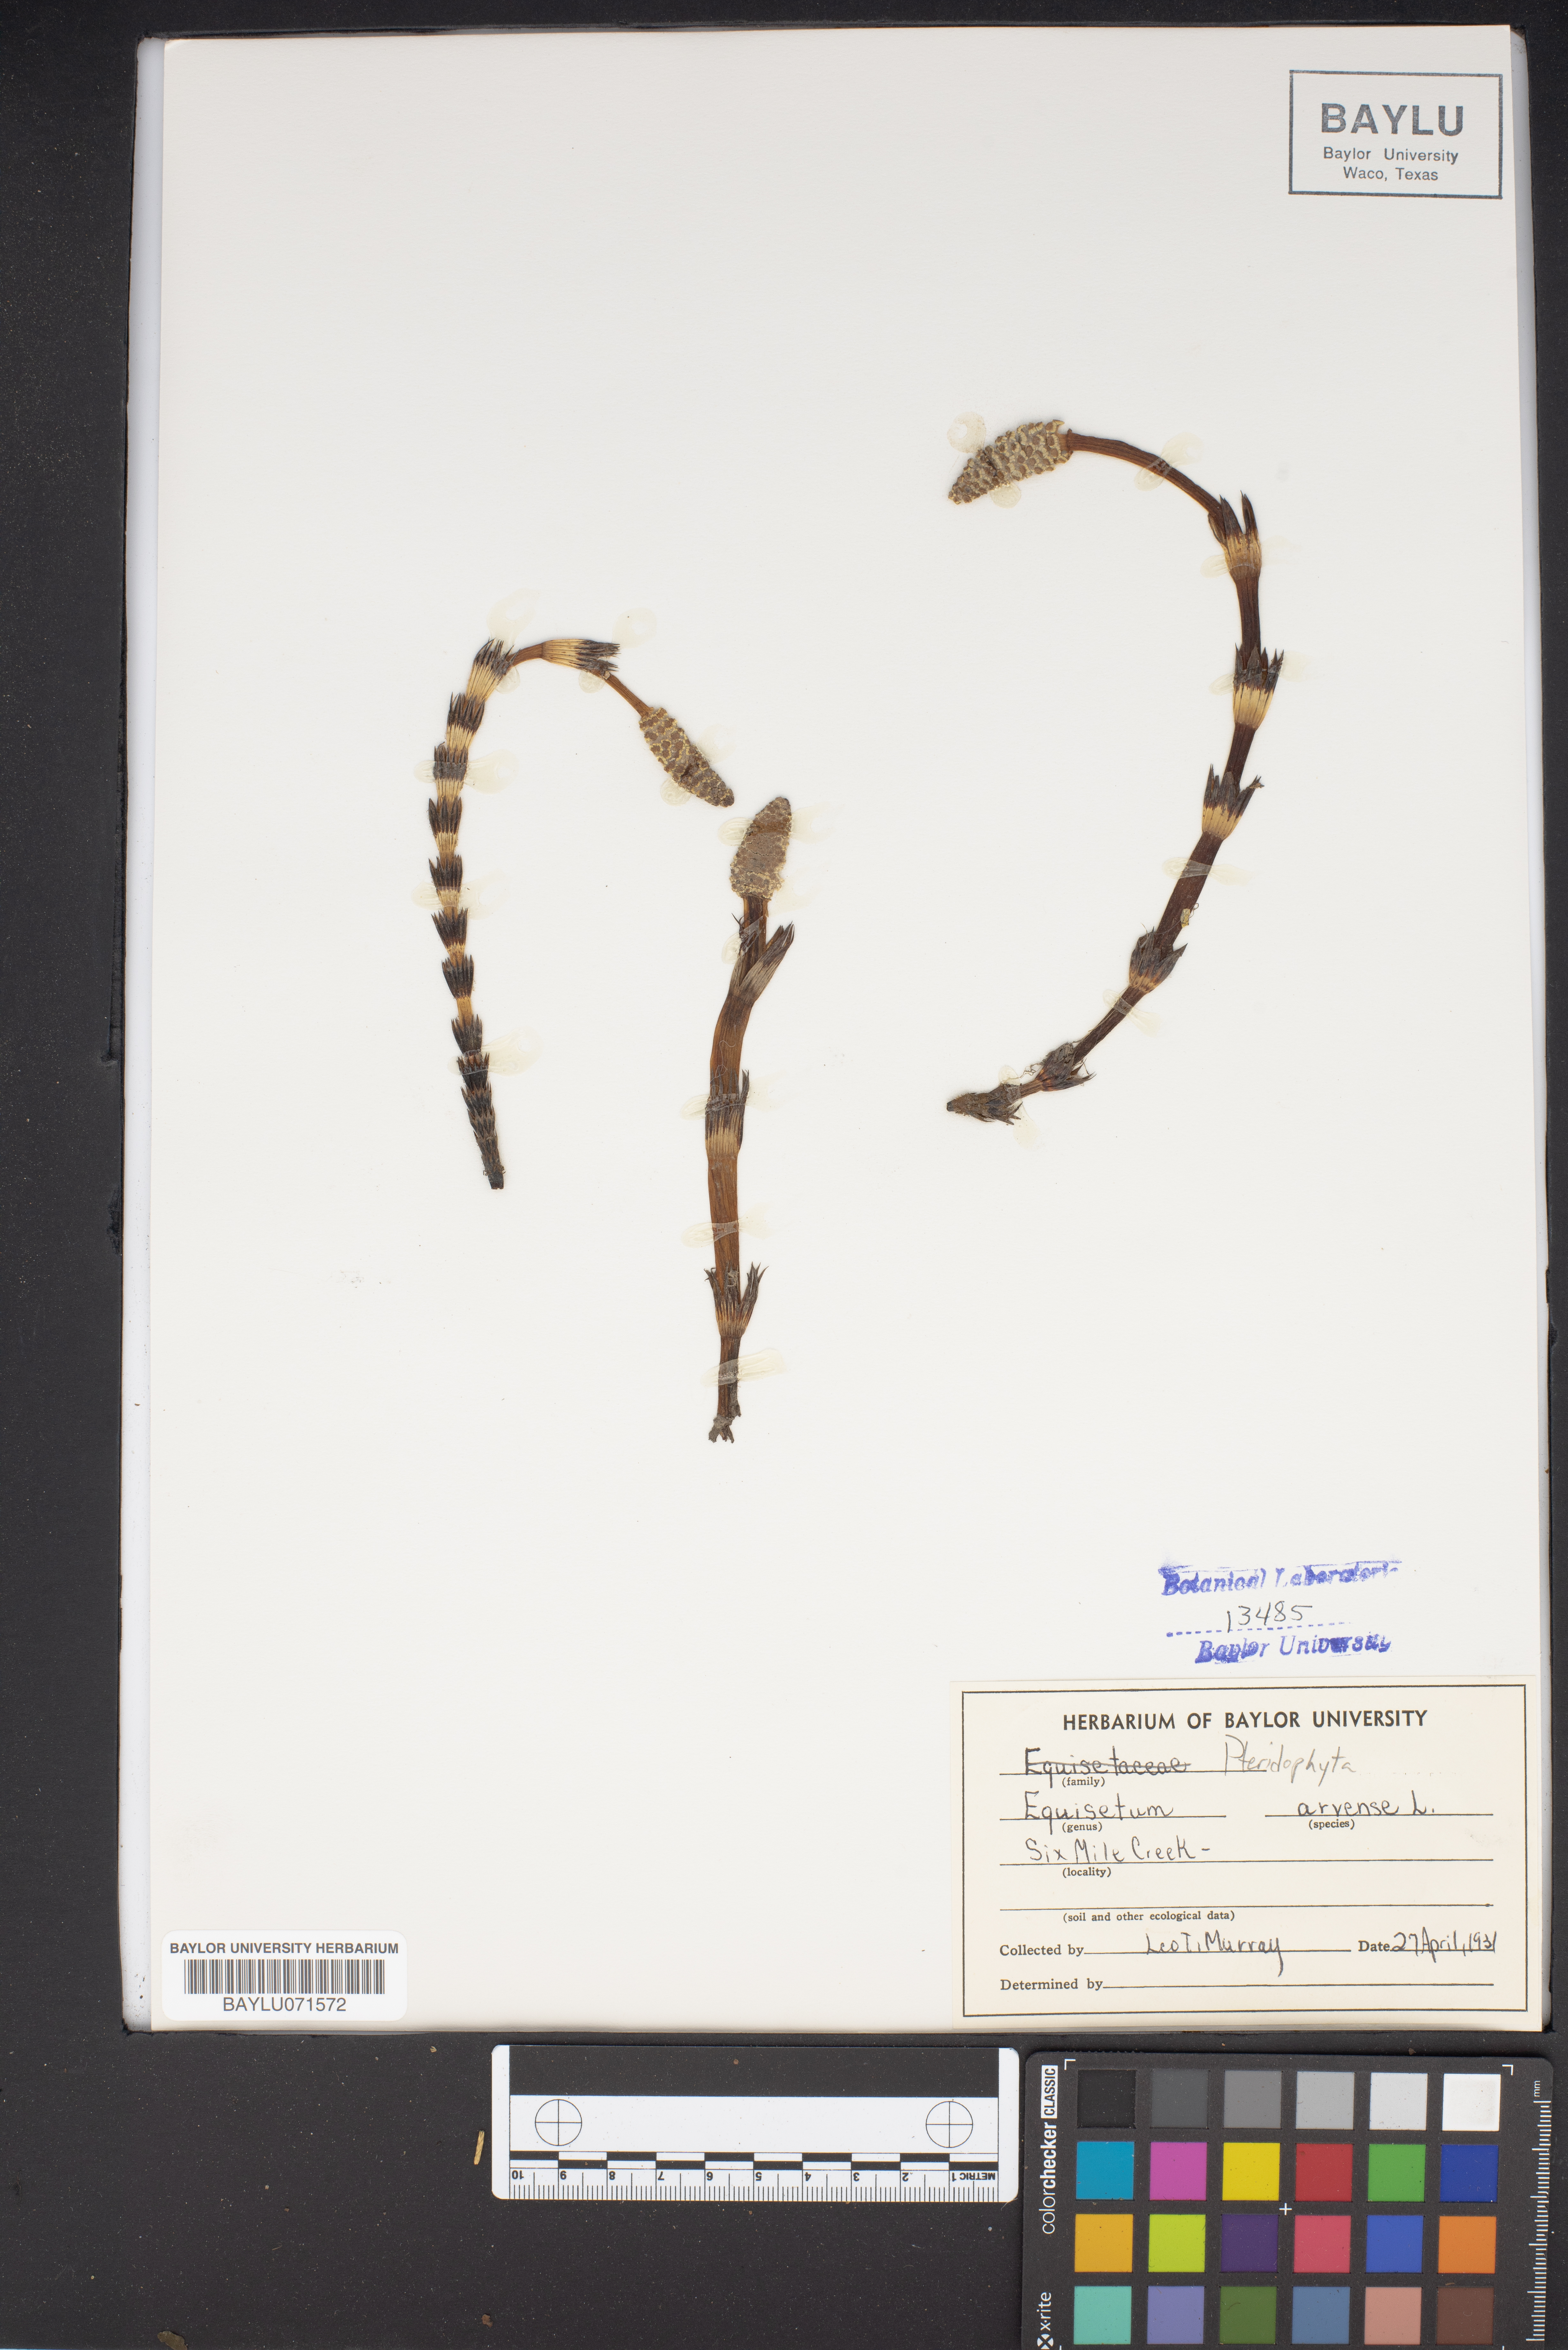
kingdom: Plantae
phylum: Tracheophyta
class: Polypodiopsida
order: Equisetales
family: Equisetaceae
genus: Equisetum
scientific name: Equisetum arvense
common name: Field horsetail
